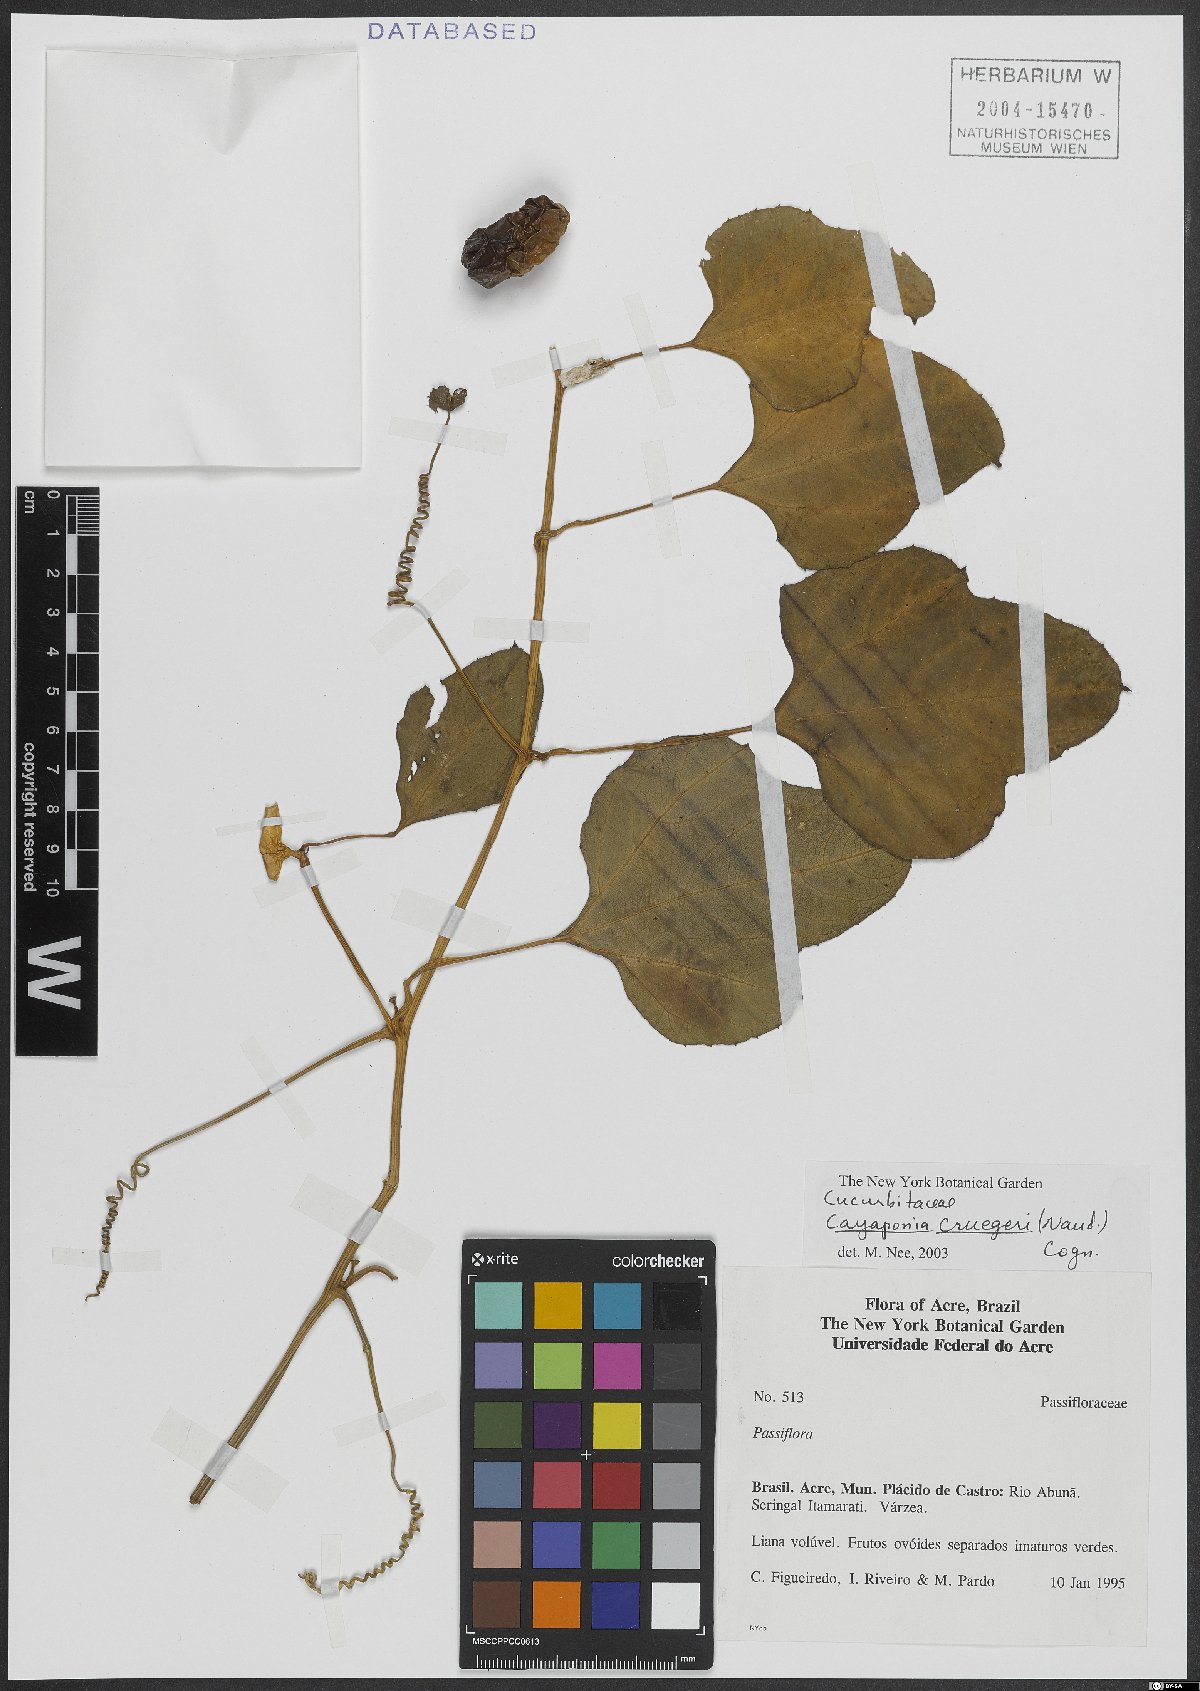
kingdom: Plantae
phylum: Tracheophyta
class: Magnoliopsida
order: Cucurbitales
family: Cucurbitaceae
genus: Cayaponia
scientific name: Cayaponia cruegeri
